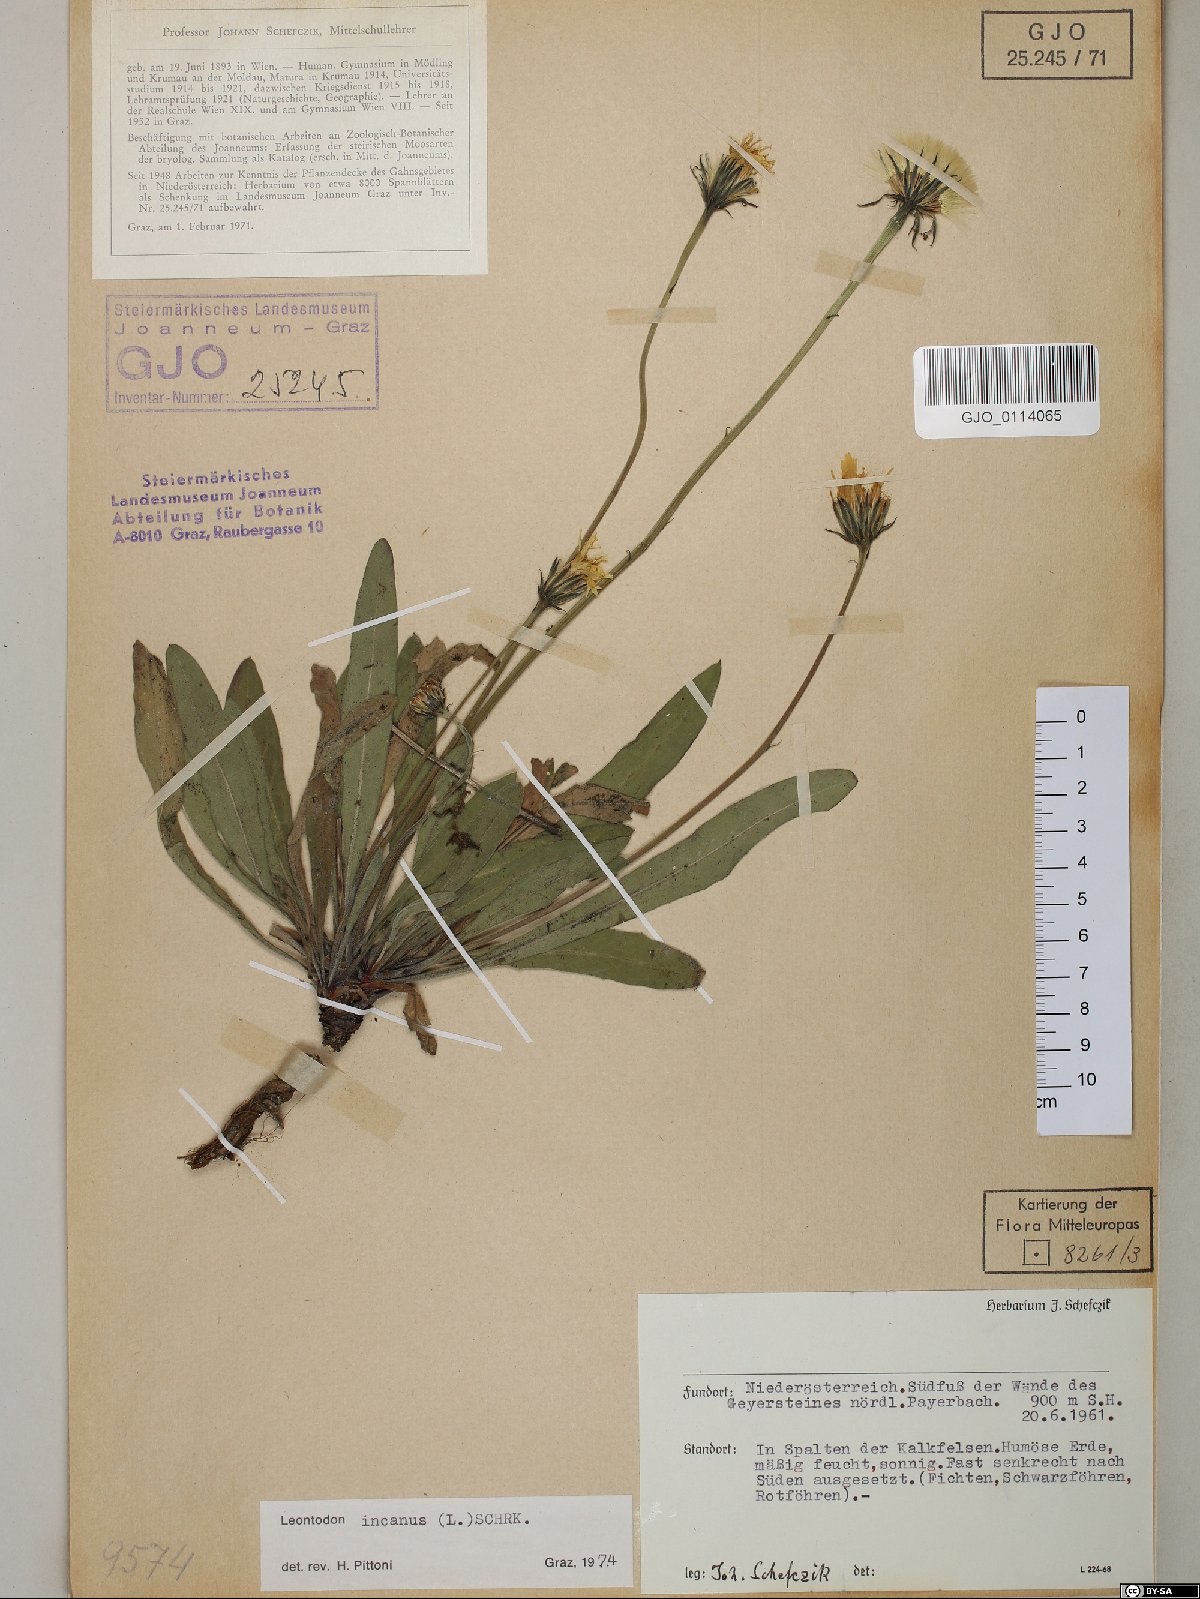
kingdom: Plantae
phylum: Tracheophyta
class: Magnoliopsida
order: Asterales
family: Asteraceae
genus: Leontodon
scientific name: Leontodon incanus
